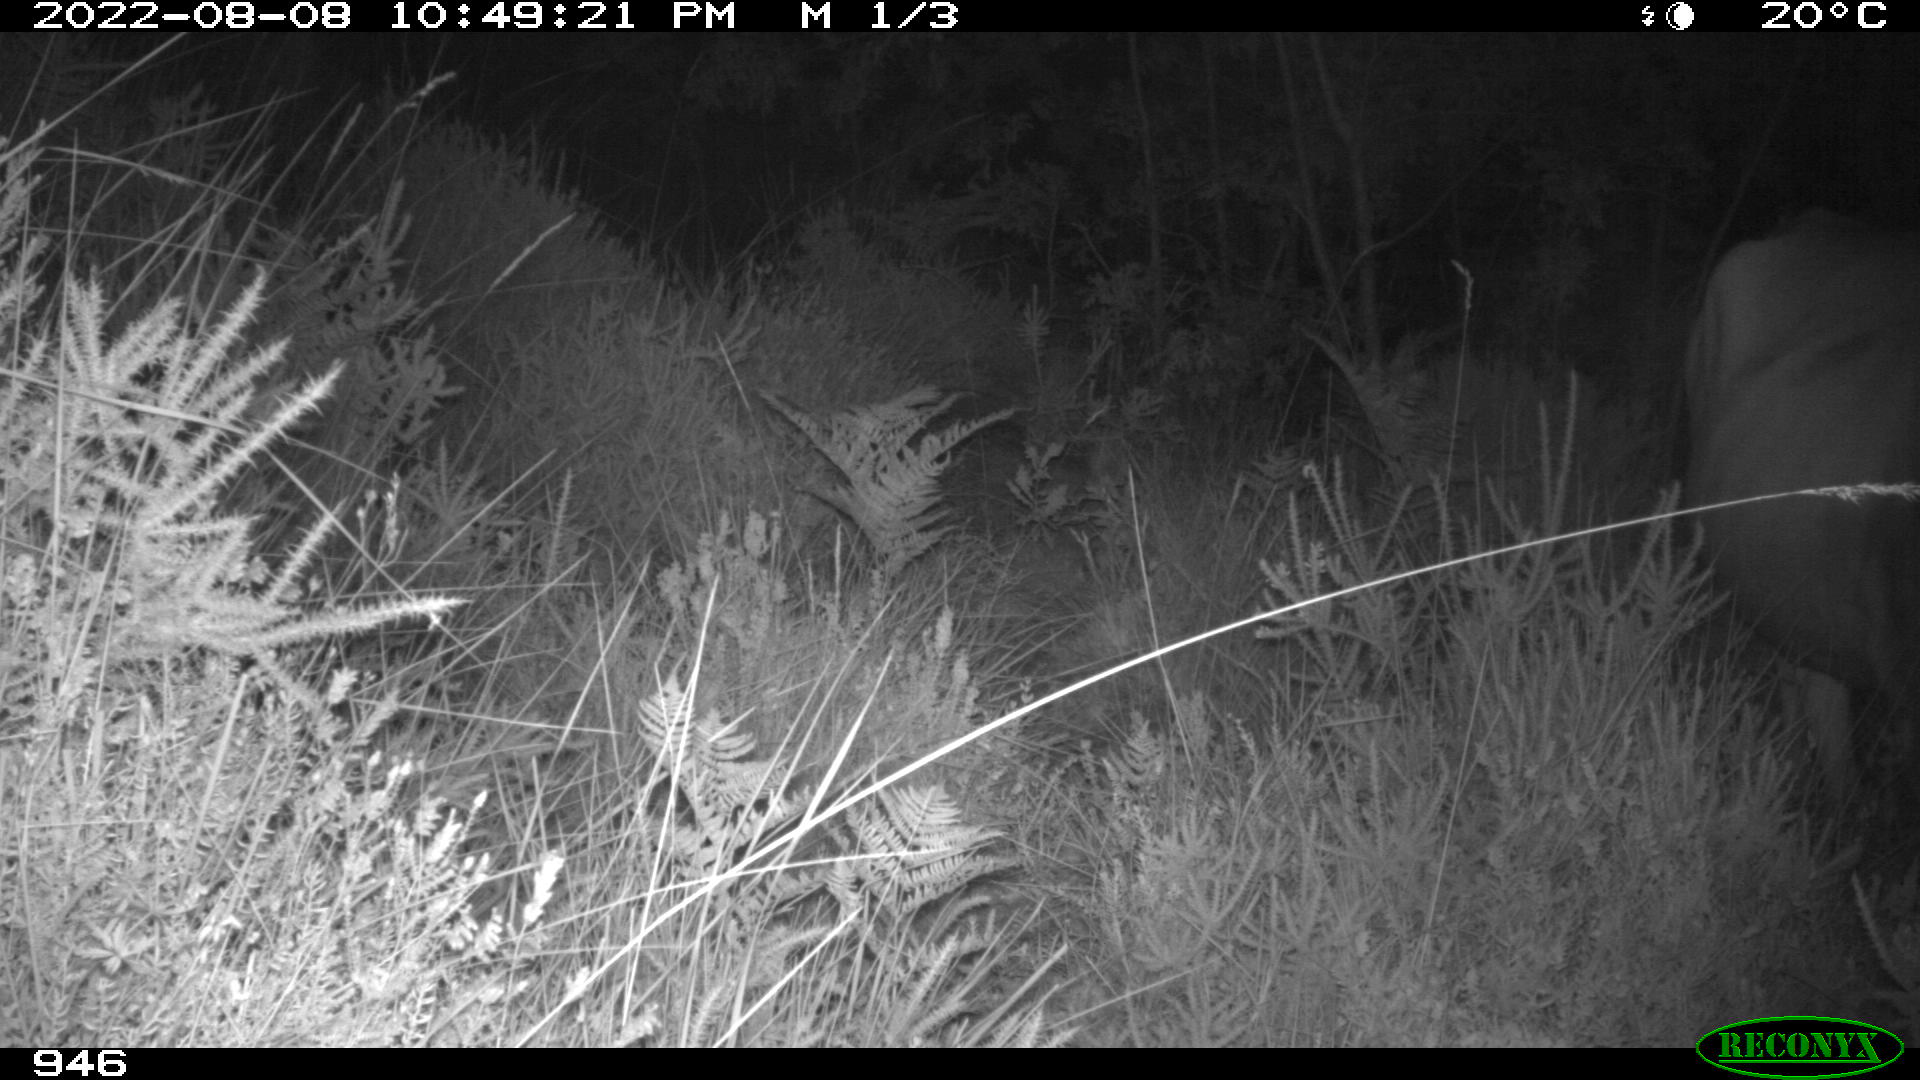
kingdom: Animalia
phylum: Chordata
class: Mammalia
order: Artiodactyla
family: Bovidae
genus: Bos
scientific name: Bos taurus
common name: Domesticated cattle
